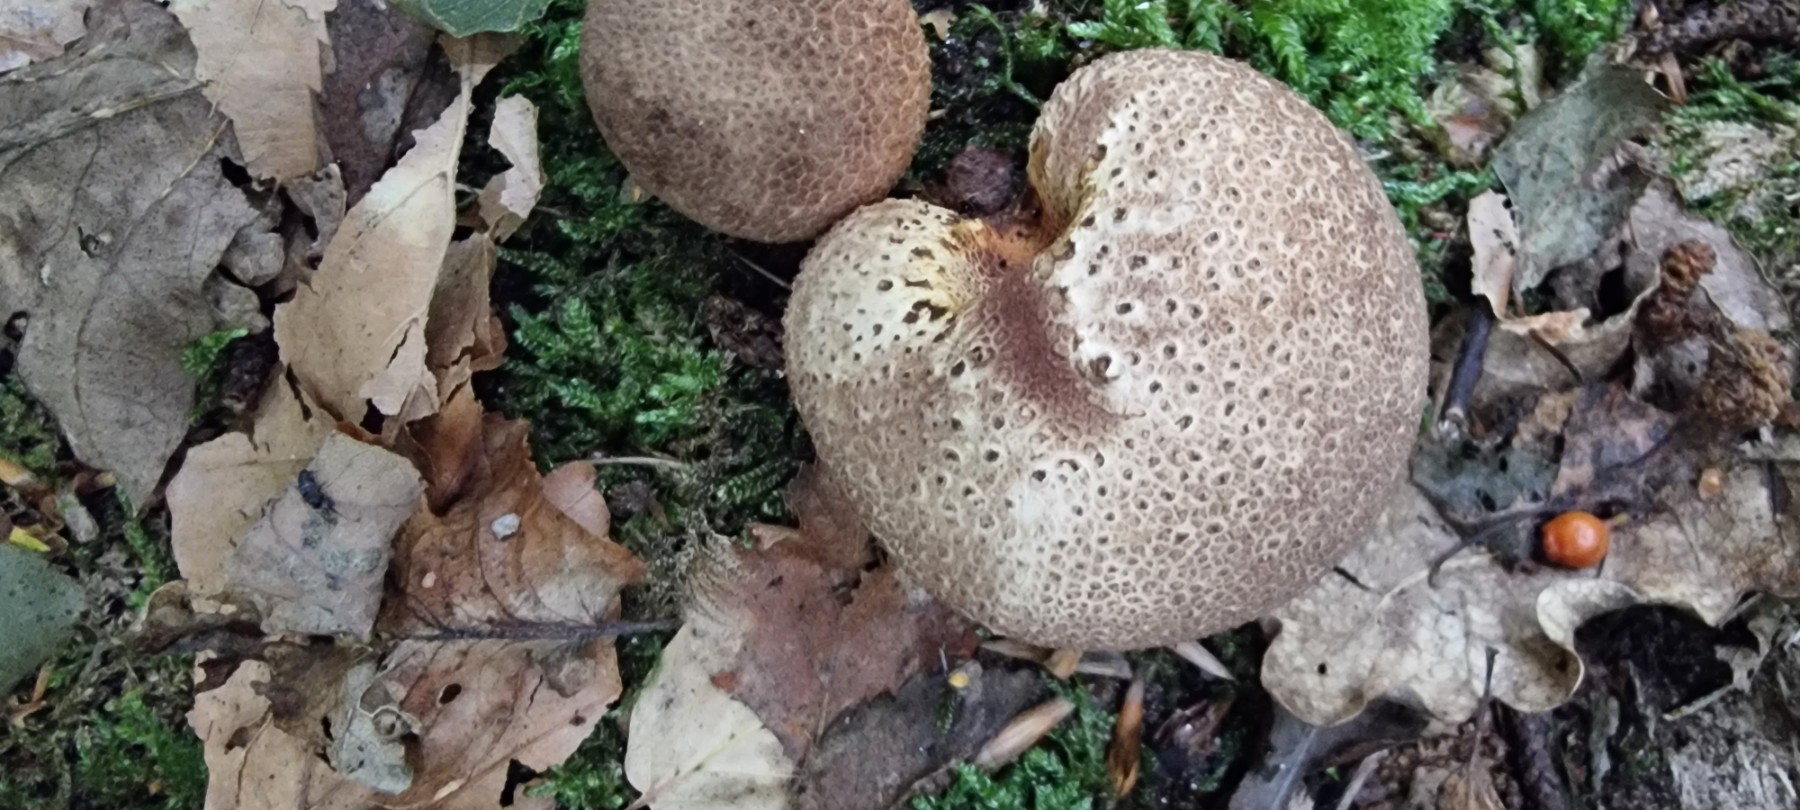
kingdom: Fungi
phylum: Basidiomycota
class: Agaricomycetes
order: Boletales
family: Sclerodermataceae
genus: Scleroderma
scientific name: Scleroderma citrinum
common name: almindelig bruskbold
